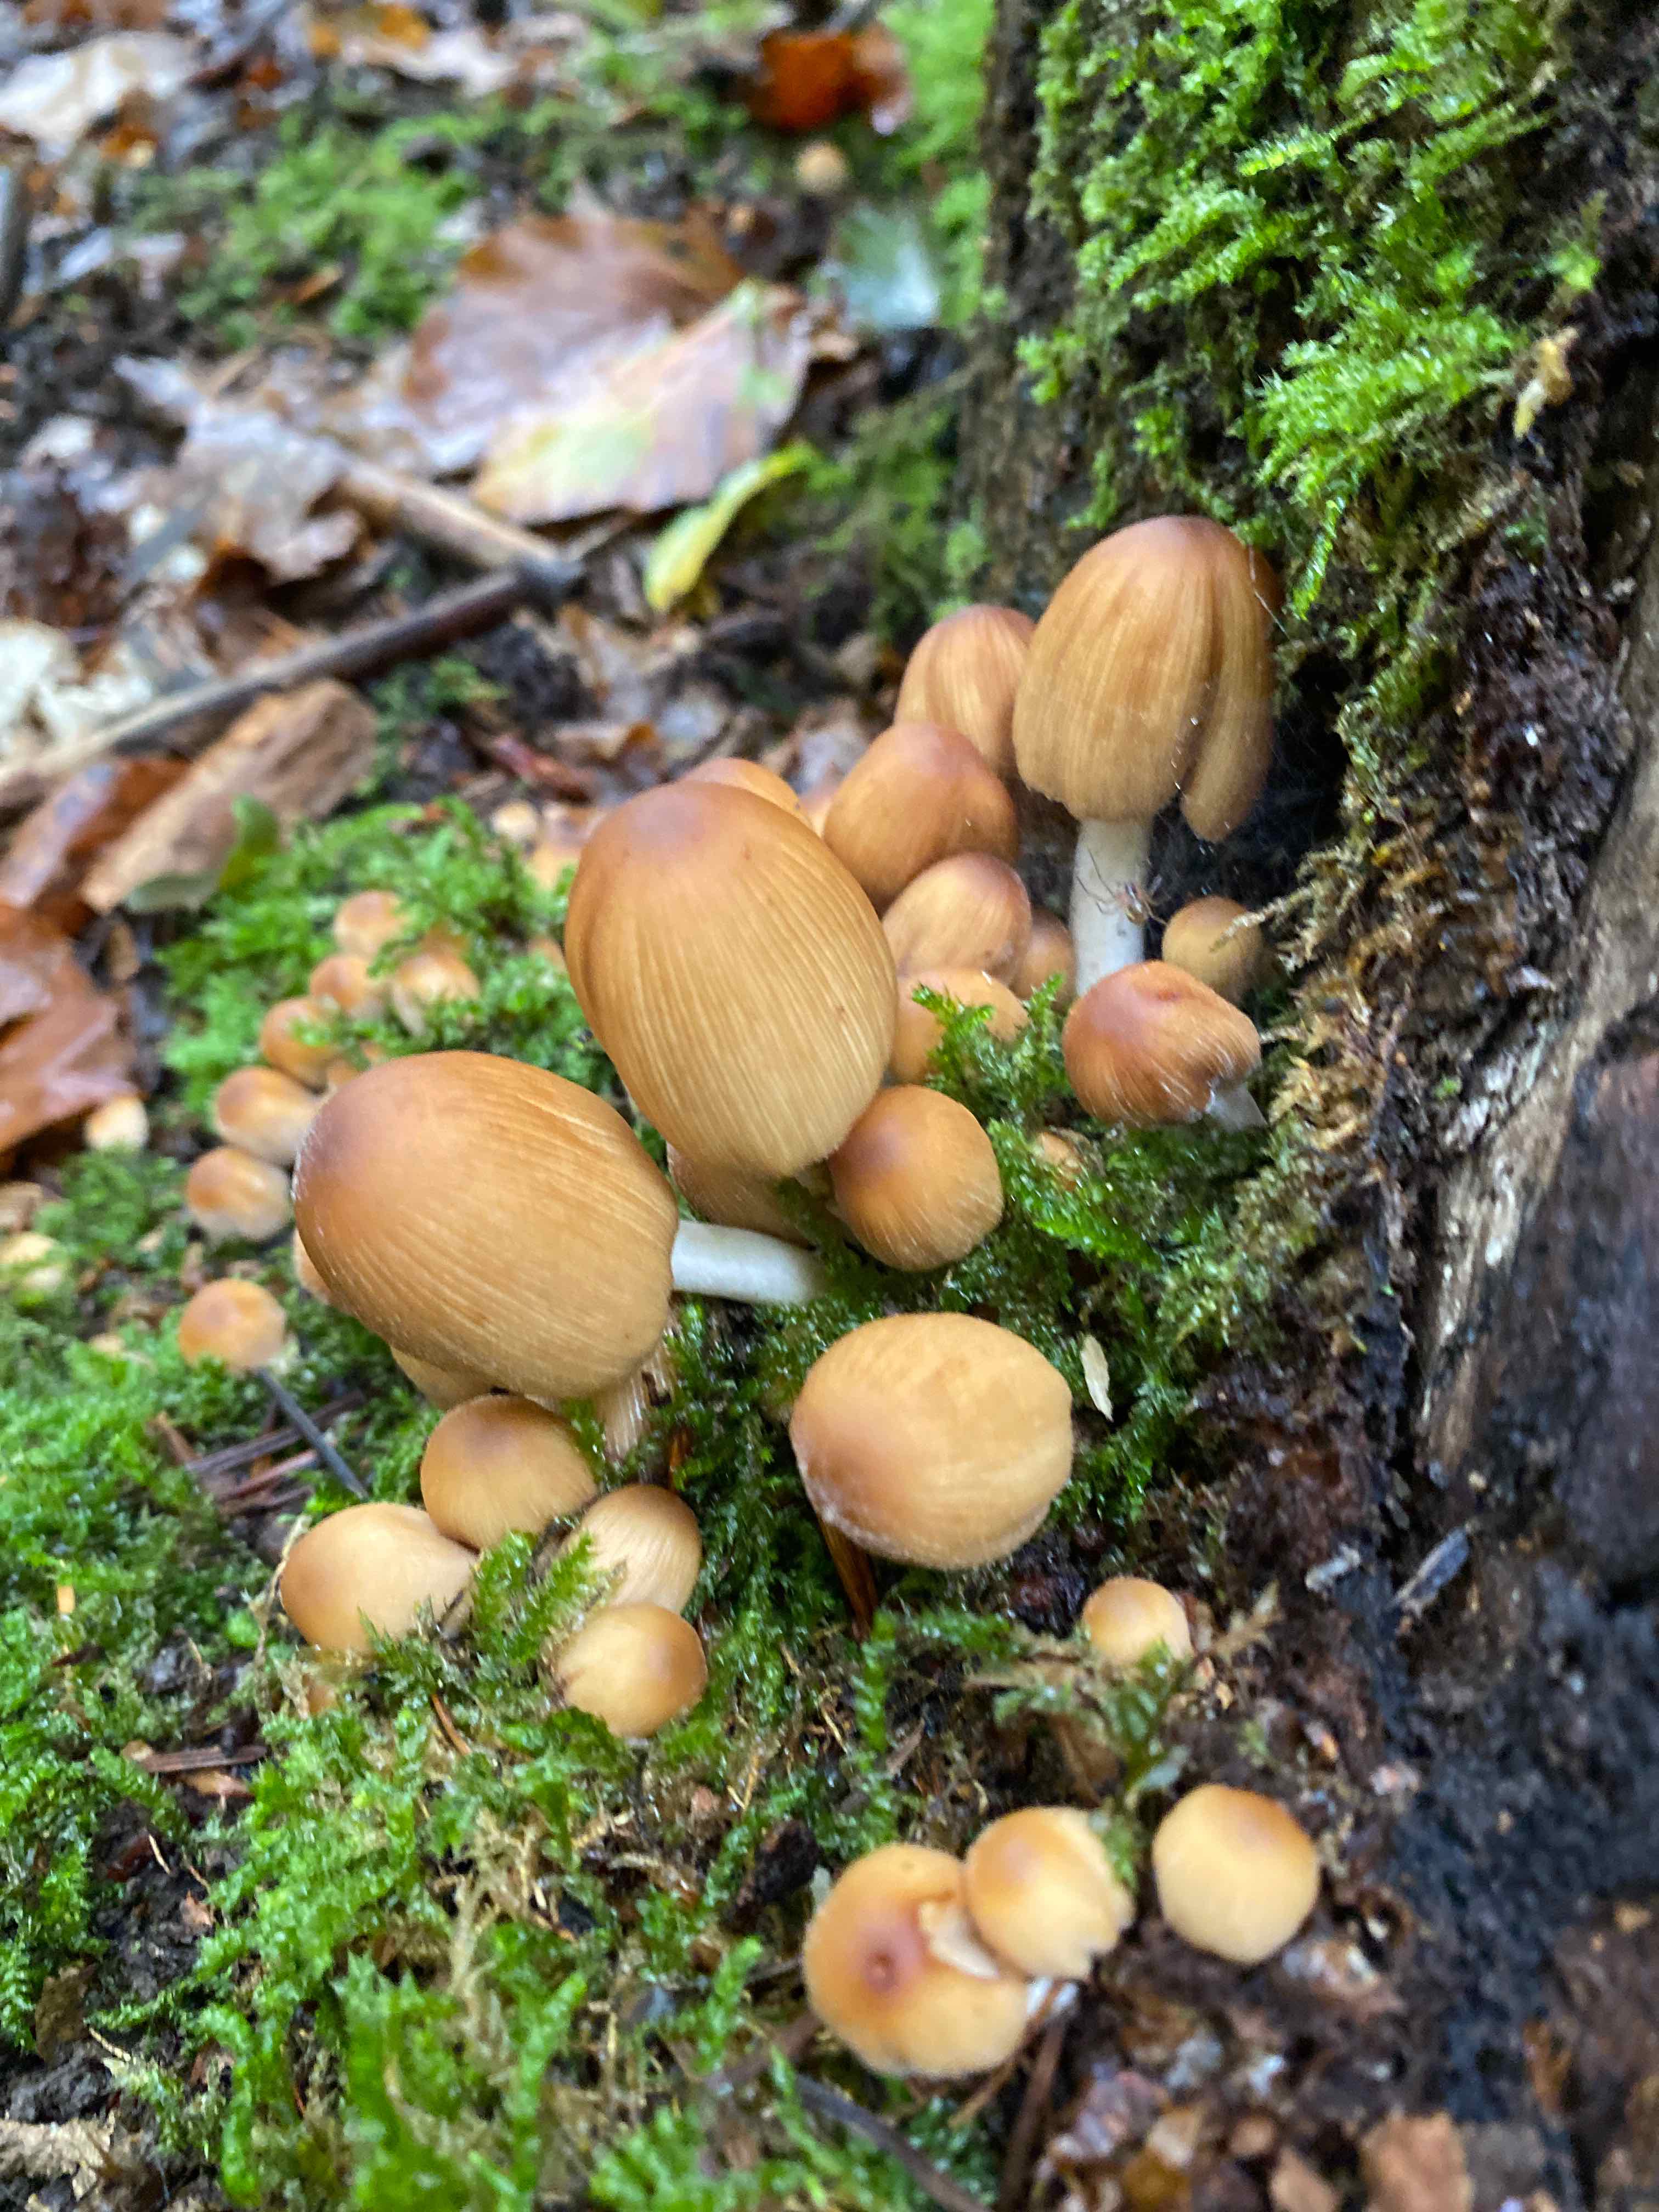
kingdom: Fungi
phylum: Basidiomycota
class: Agaricomycetes
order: Agaricales
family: Psathyrellaceae
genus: Coprinellus
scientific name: Coprinellus micaceus
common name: glimmer-blækhat
